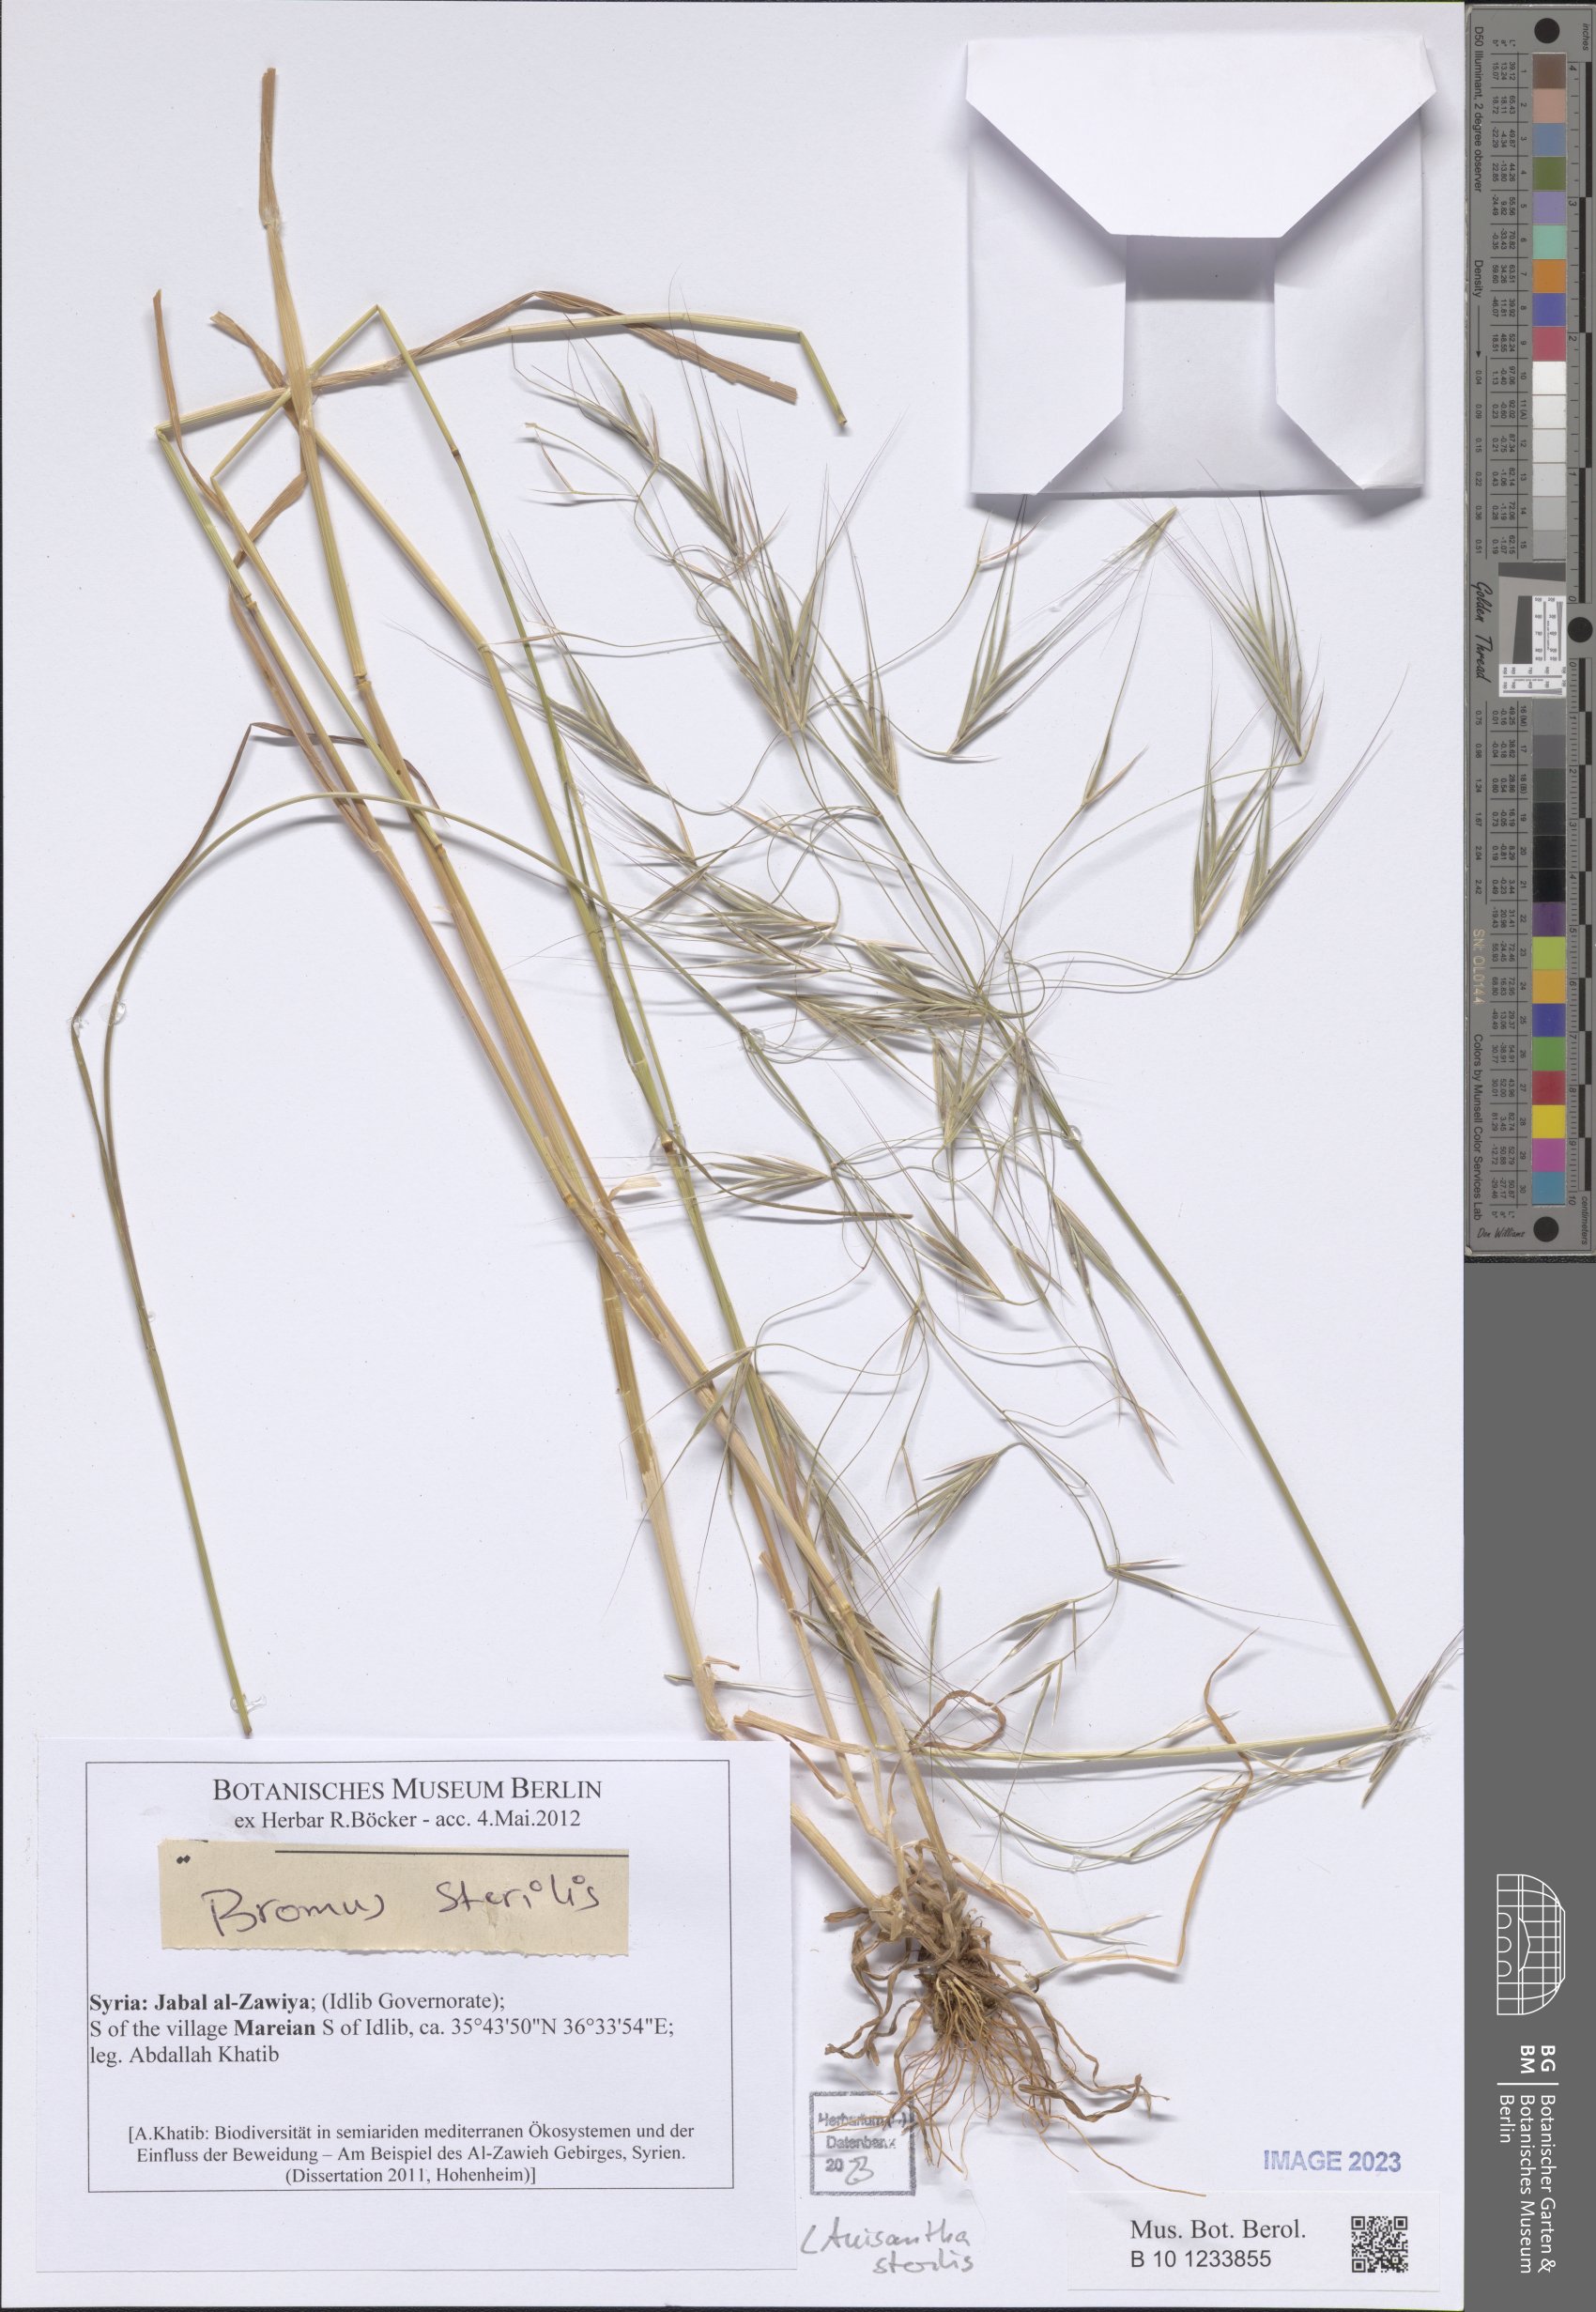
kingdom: Plantae
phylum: Tracheophyta
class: Liliopsida
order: Poales
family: Poaceae
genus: Bromus
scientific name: Bromus sterilis
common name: Poverty brome
